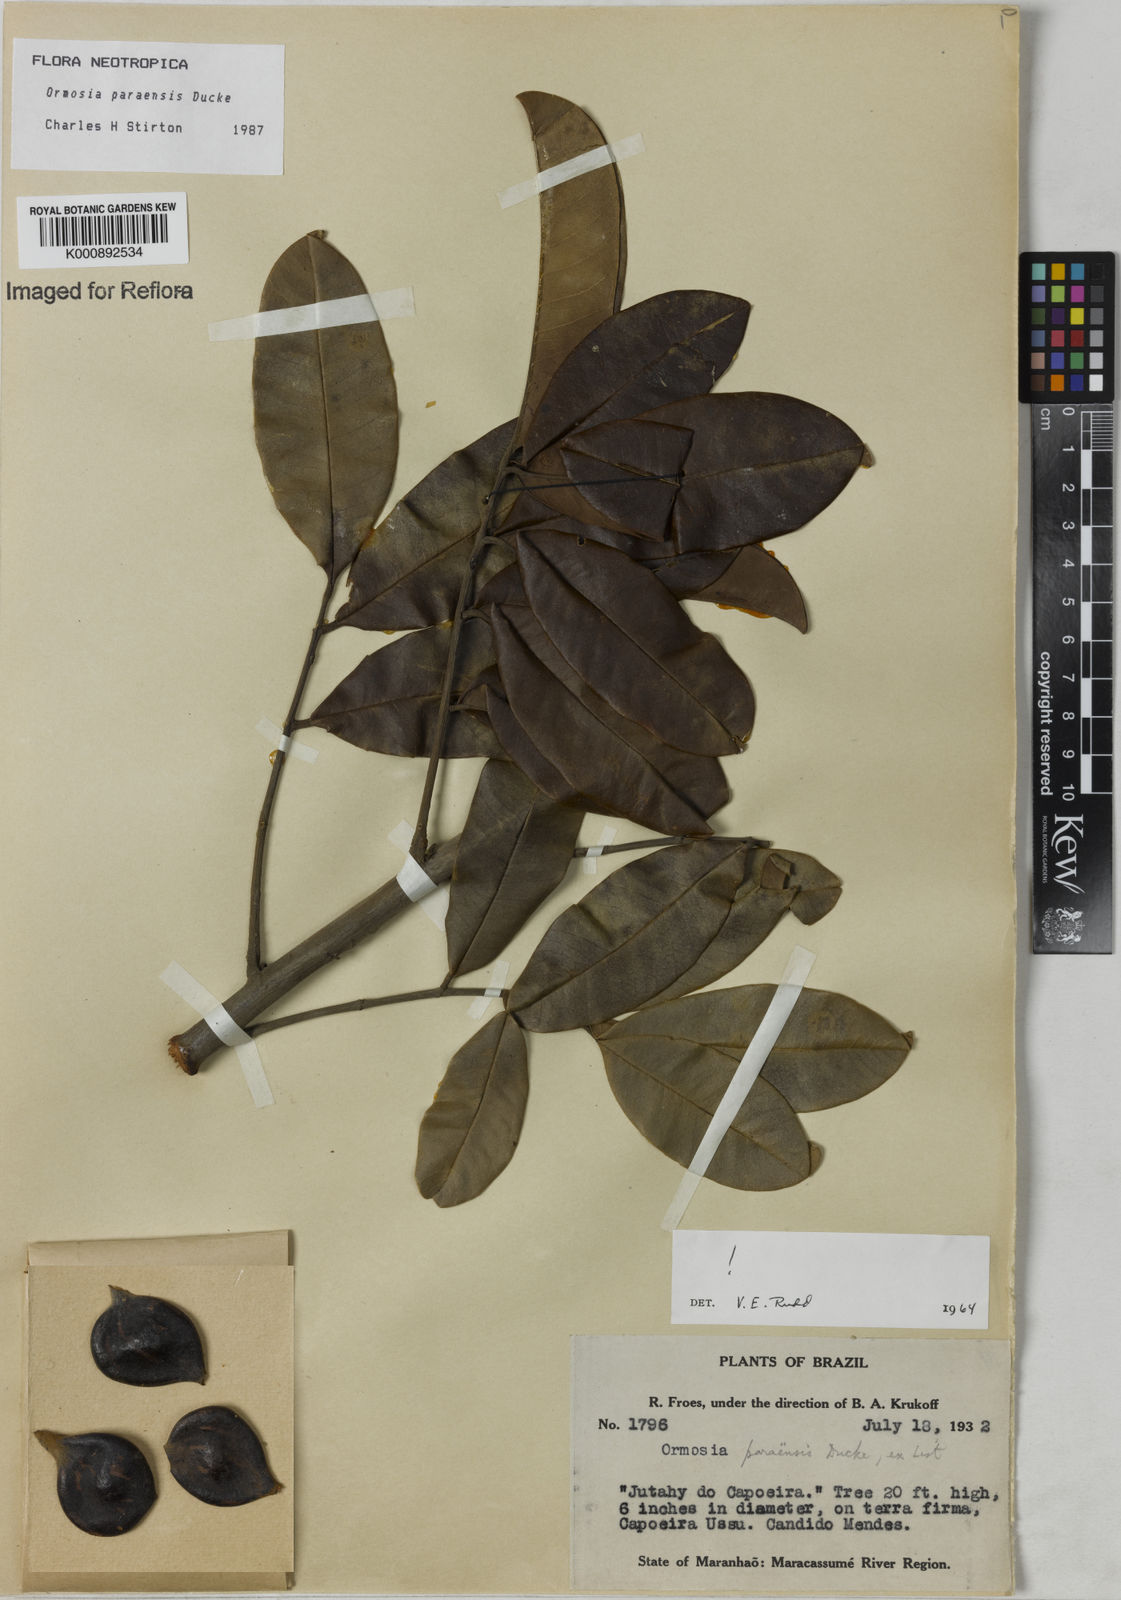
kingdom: Plantae
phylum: Tracheophyta
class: Magnoliopsida
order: Fabales
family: Fabaceae
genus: Ormosia
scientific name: Ormosia paraensis
